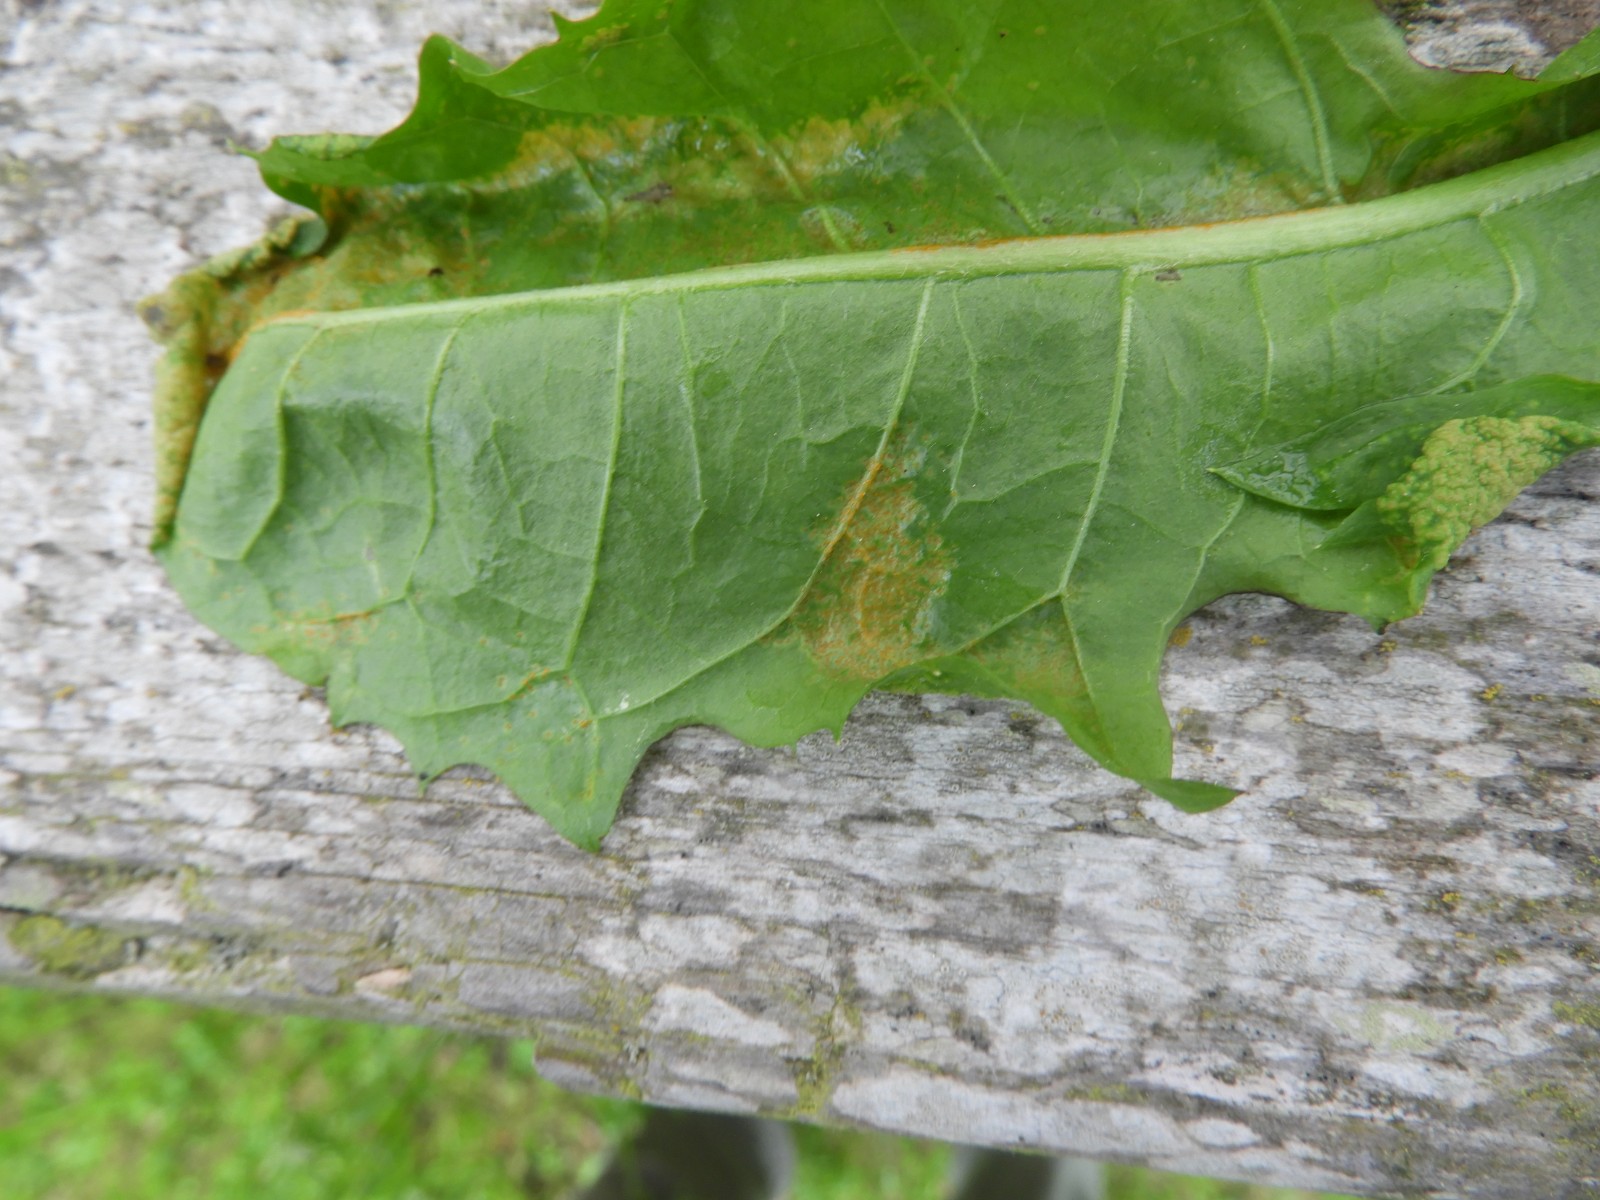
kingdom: Fungi
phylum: Chytridiomycota
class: Chytridiomycetes
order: Chytridiales
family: Synchytriaceae
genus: Synchytrium
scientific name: Synchytrium taraxaci
